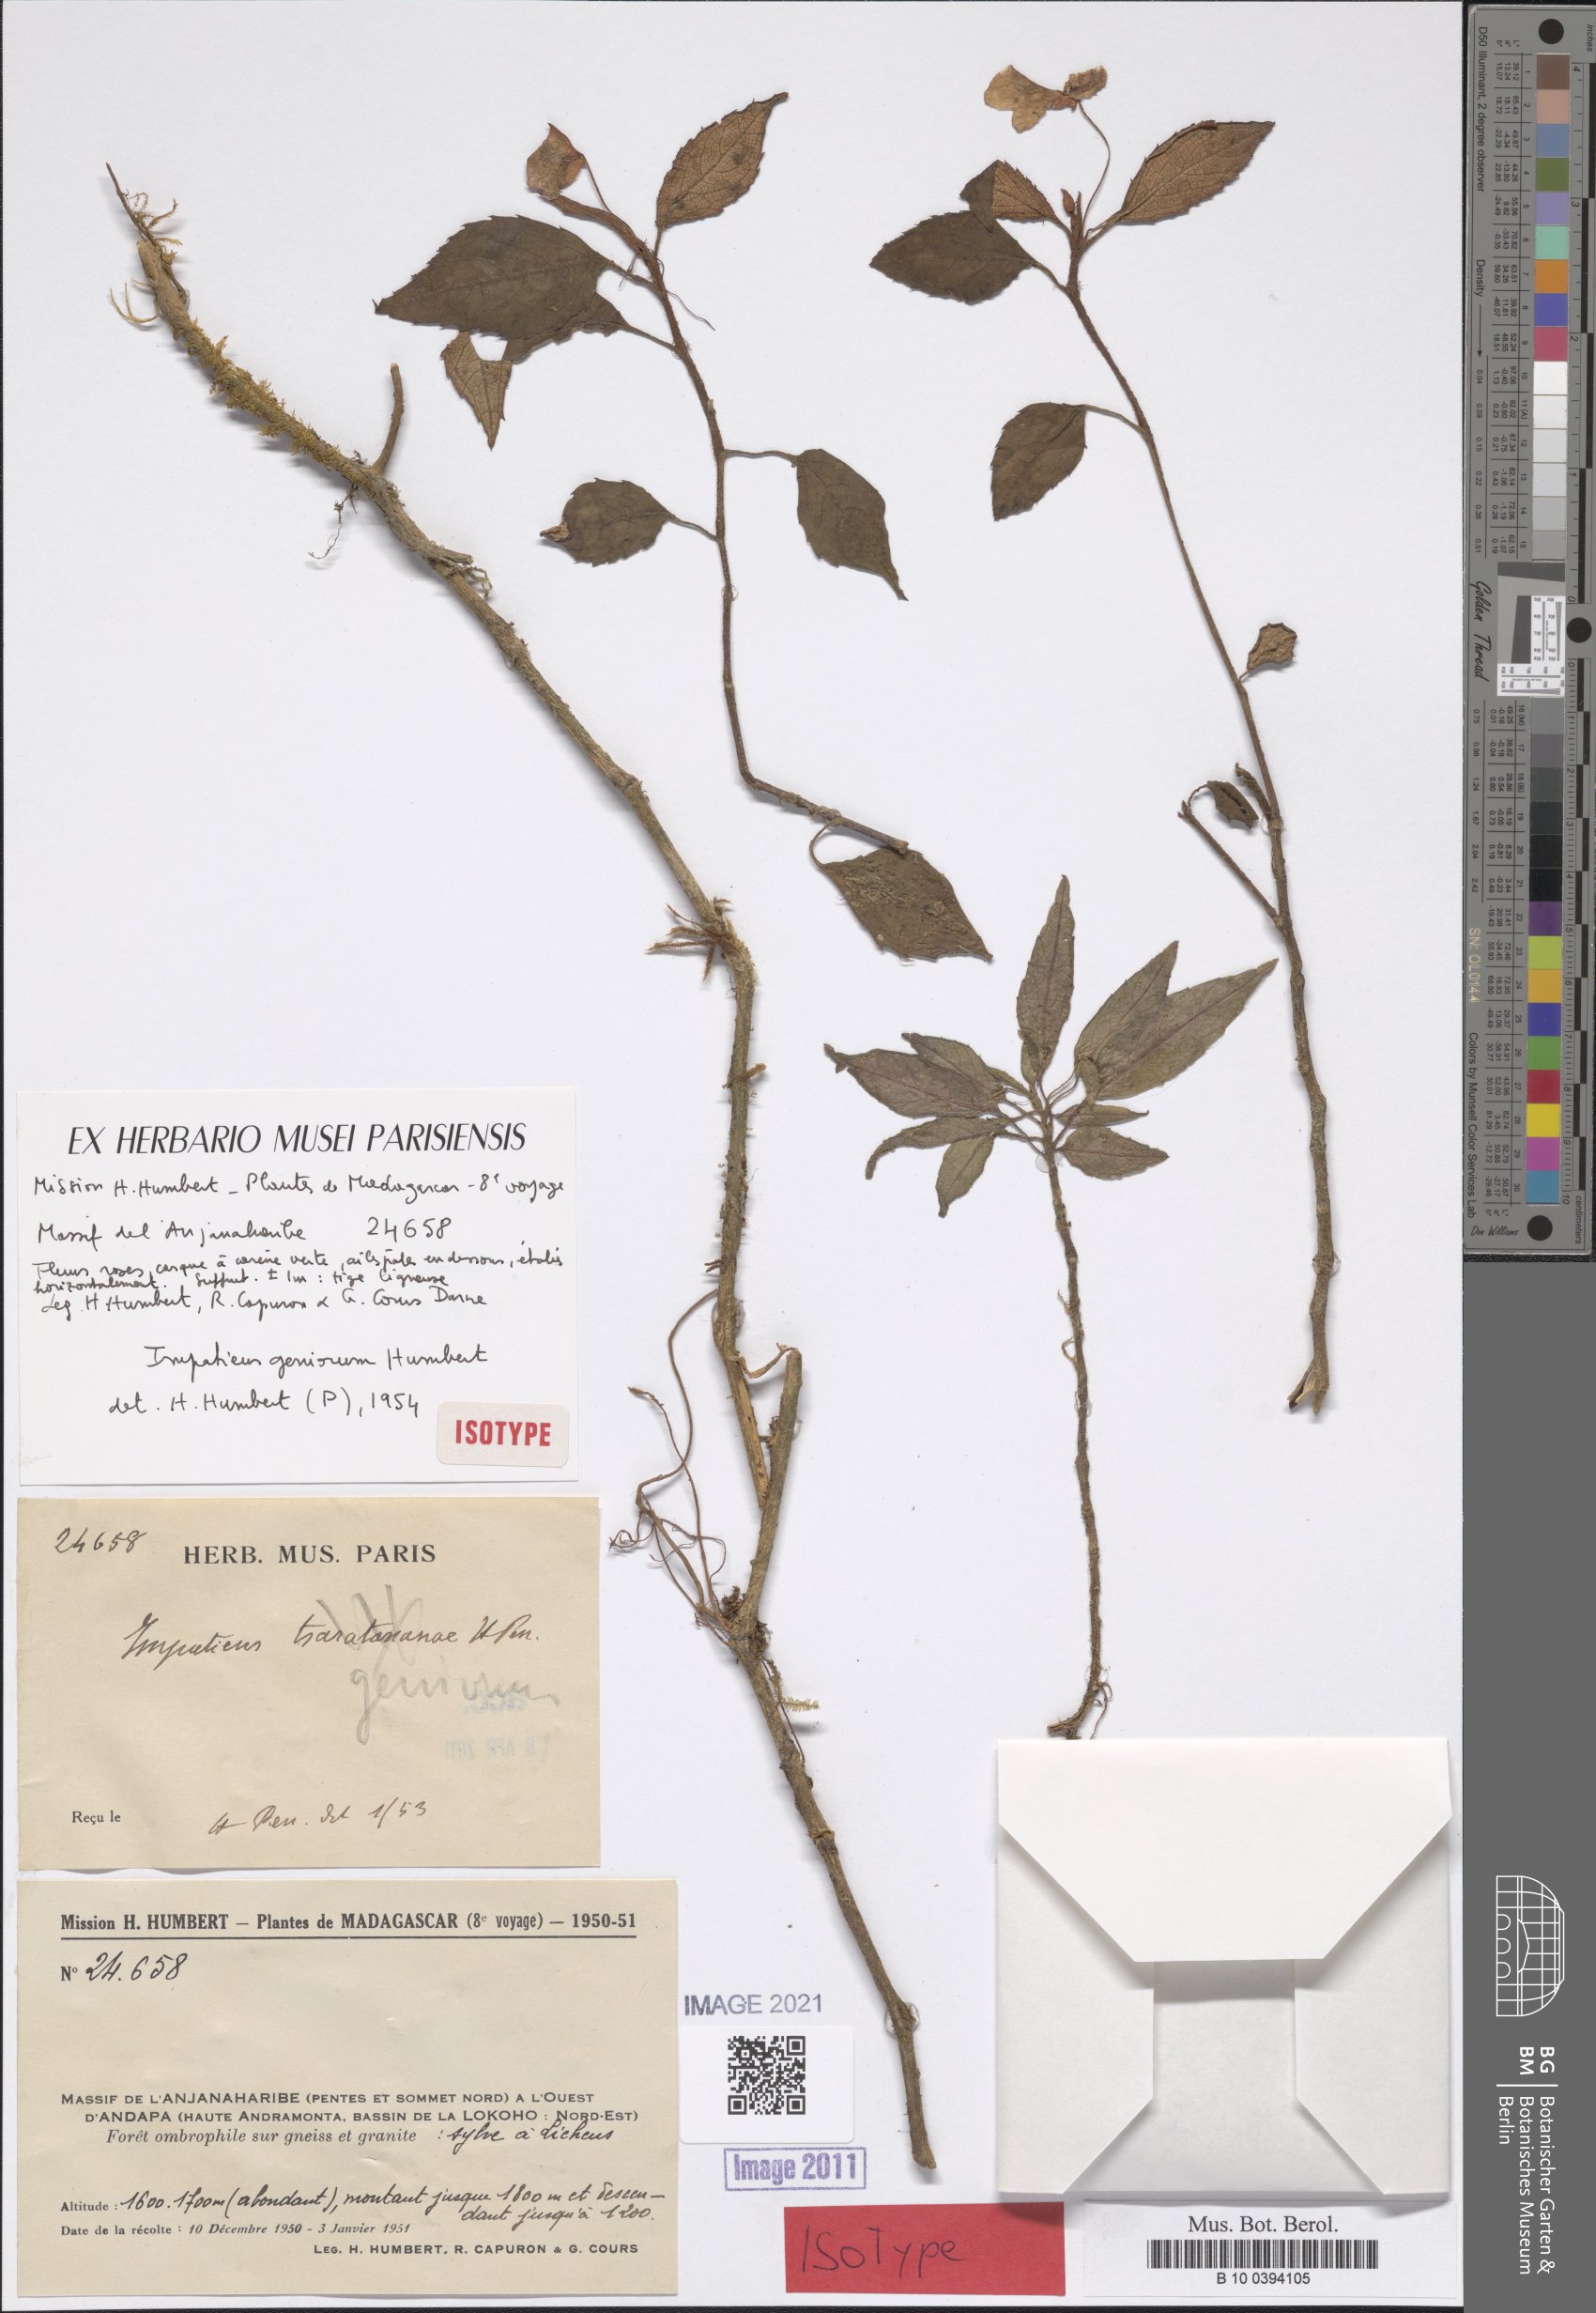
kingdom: Plantae
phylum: Tracheophyta
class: Magnoliopsida
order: Ericales
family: Balsaminaceae
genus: Impatiens
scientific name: Impatiens geniorum
